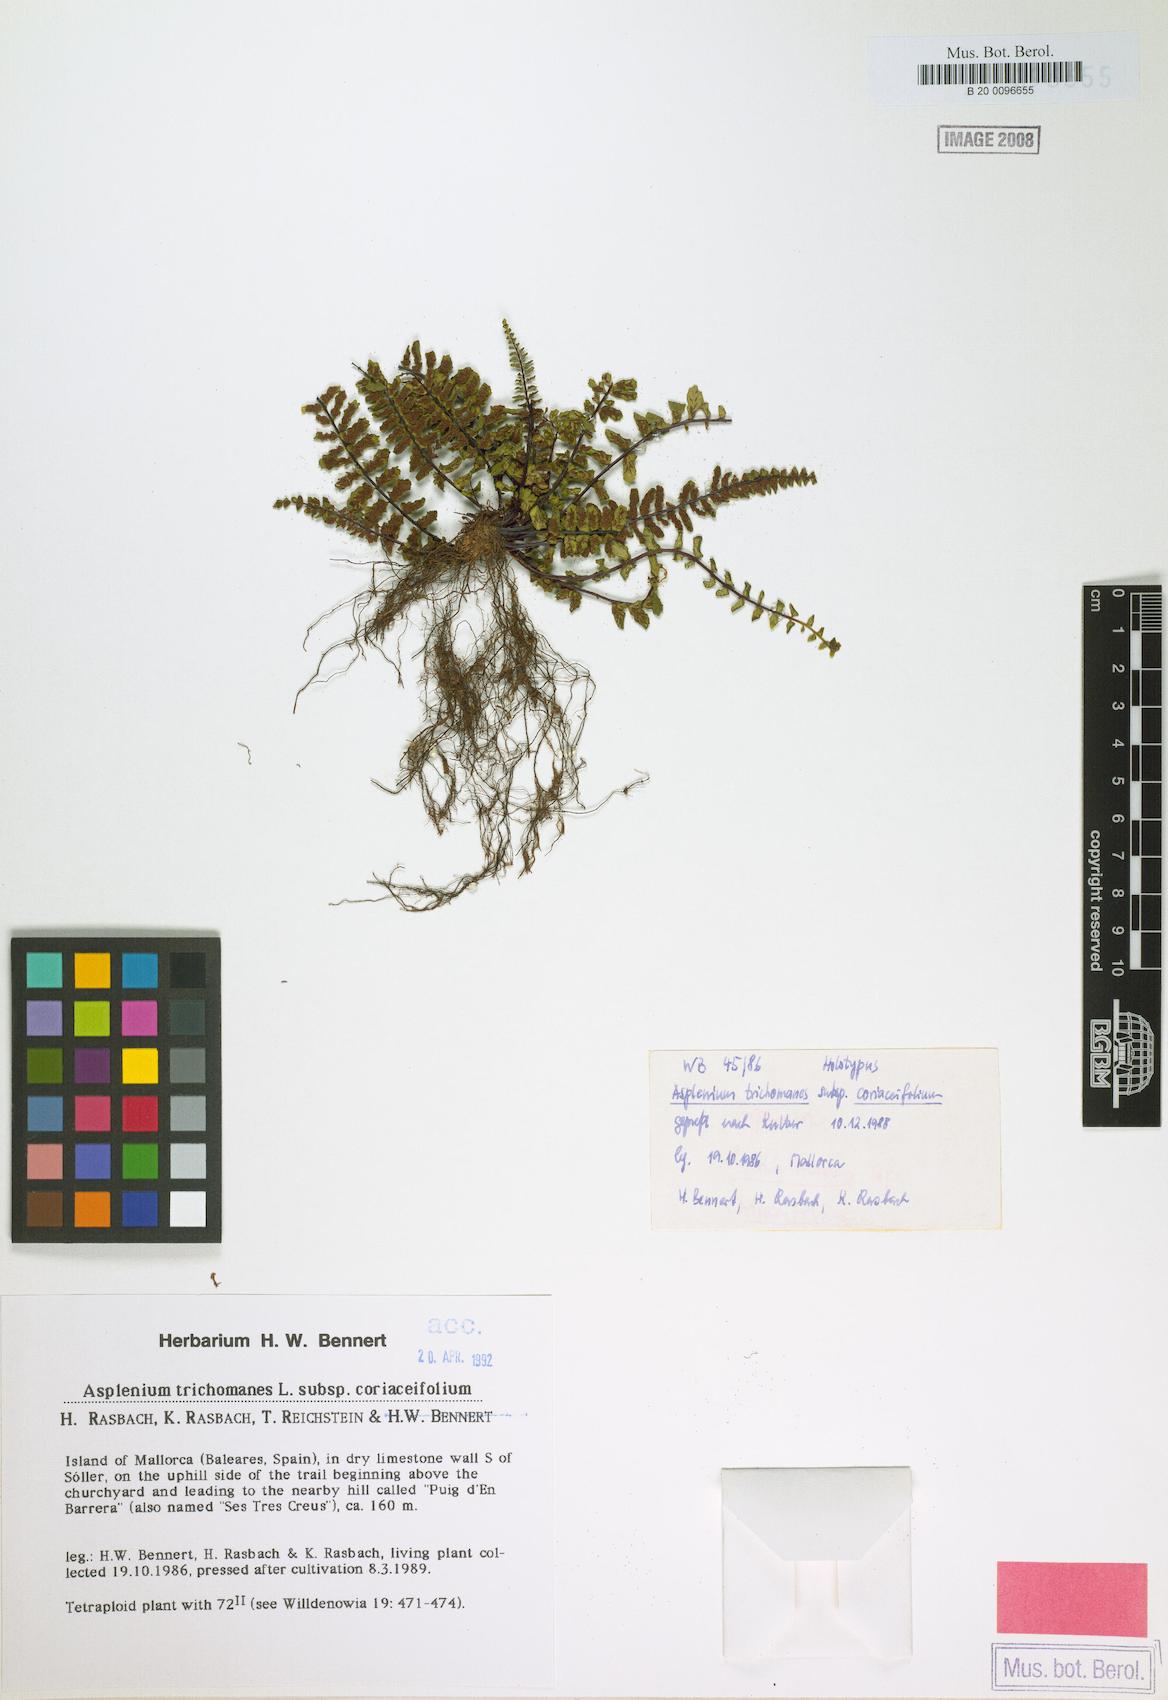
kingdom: Plantae
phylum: Tracheophyta
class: Polypodiopsida
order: Polypodiales
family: Aspleniaceae
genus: Asplenium
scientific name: Asplenium azomanes
